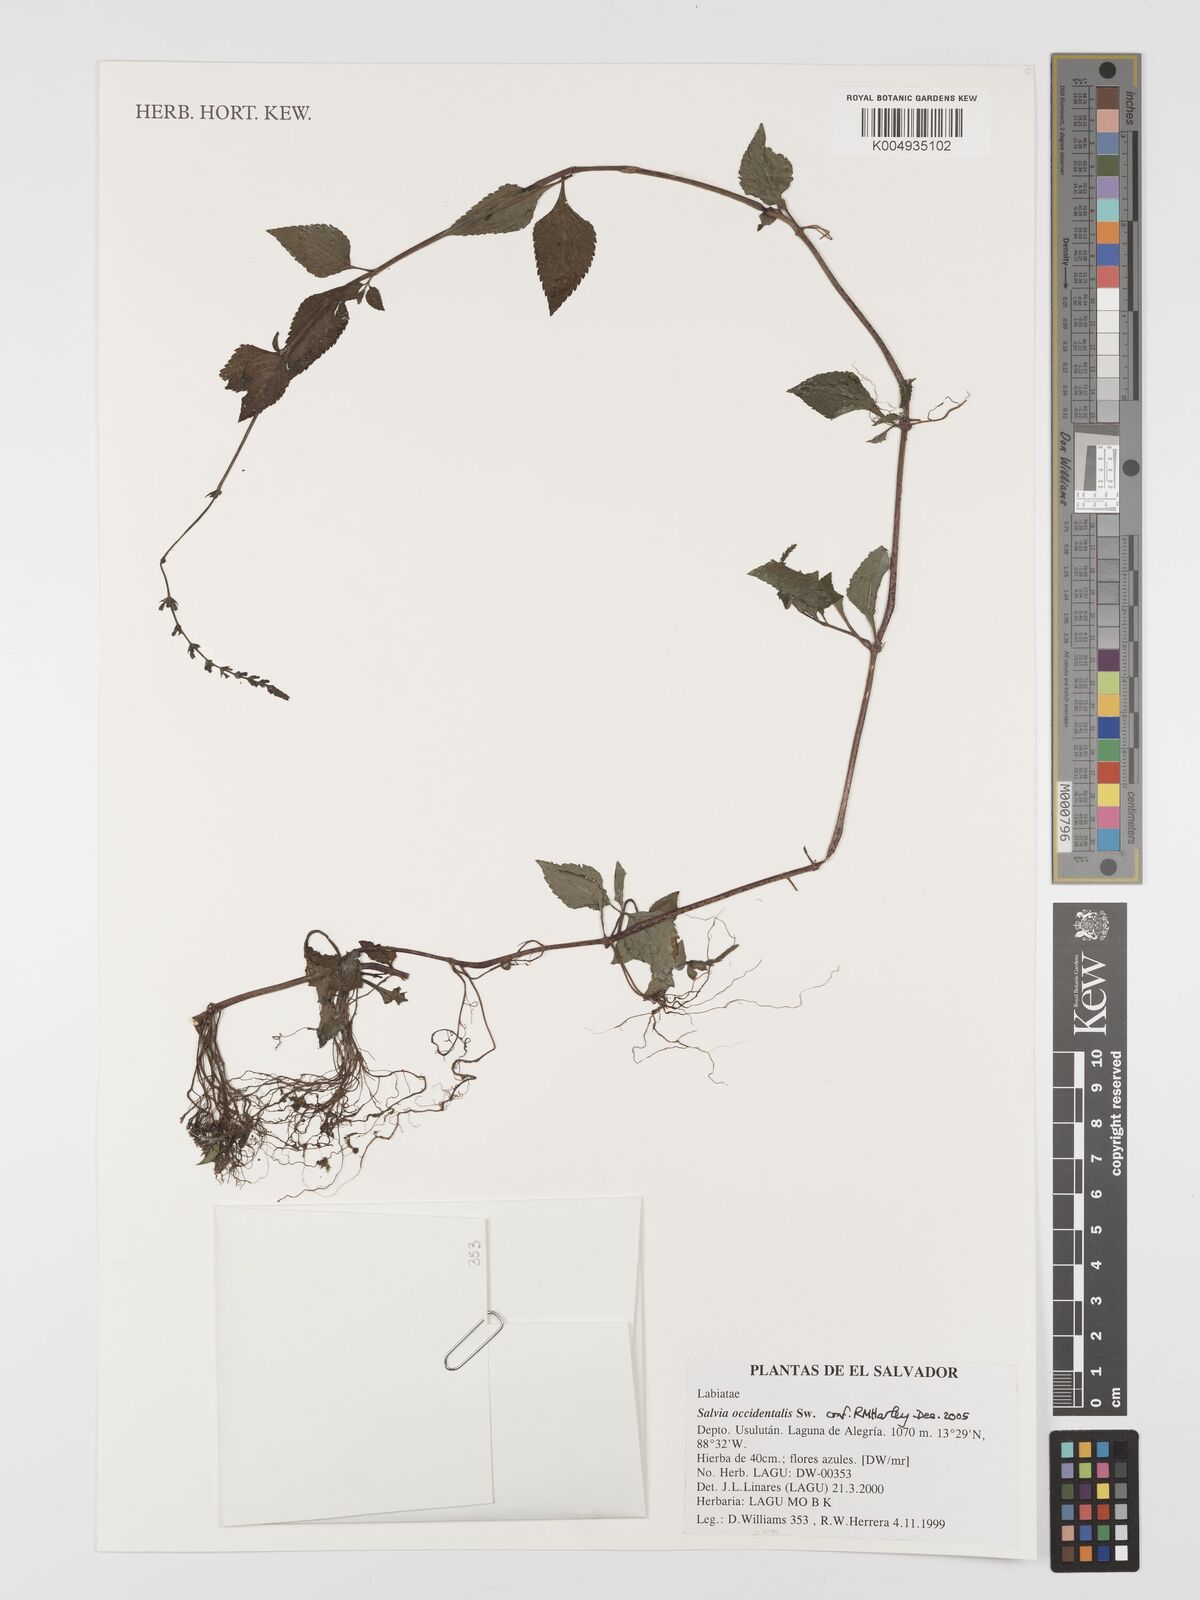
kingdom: Plantae
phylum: Tracheophyta
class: Magnoliopsida
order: Lamiales
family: Lamiaceae
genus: Salvia
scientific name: Salvia occidentalis
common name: West indian sage
